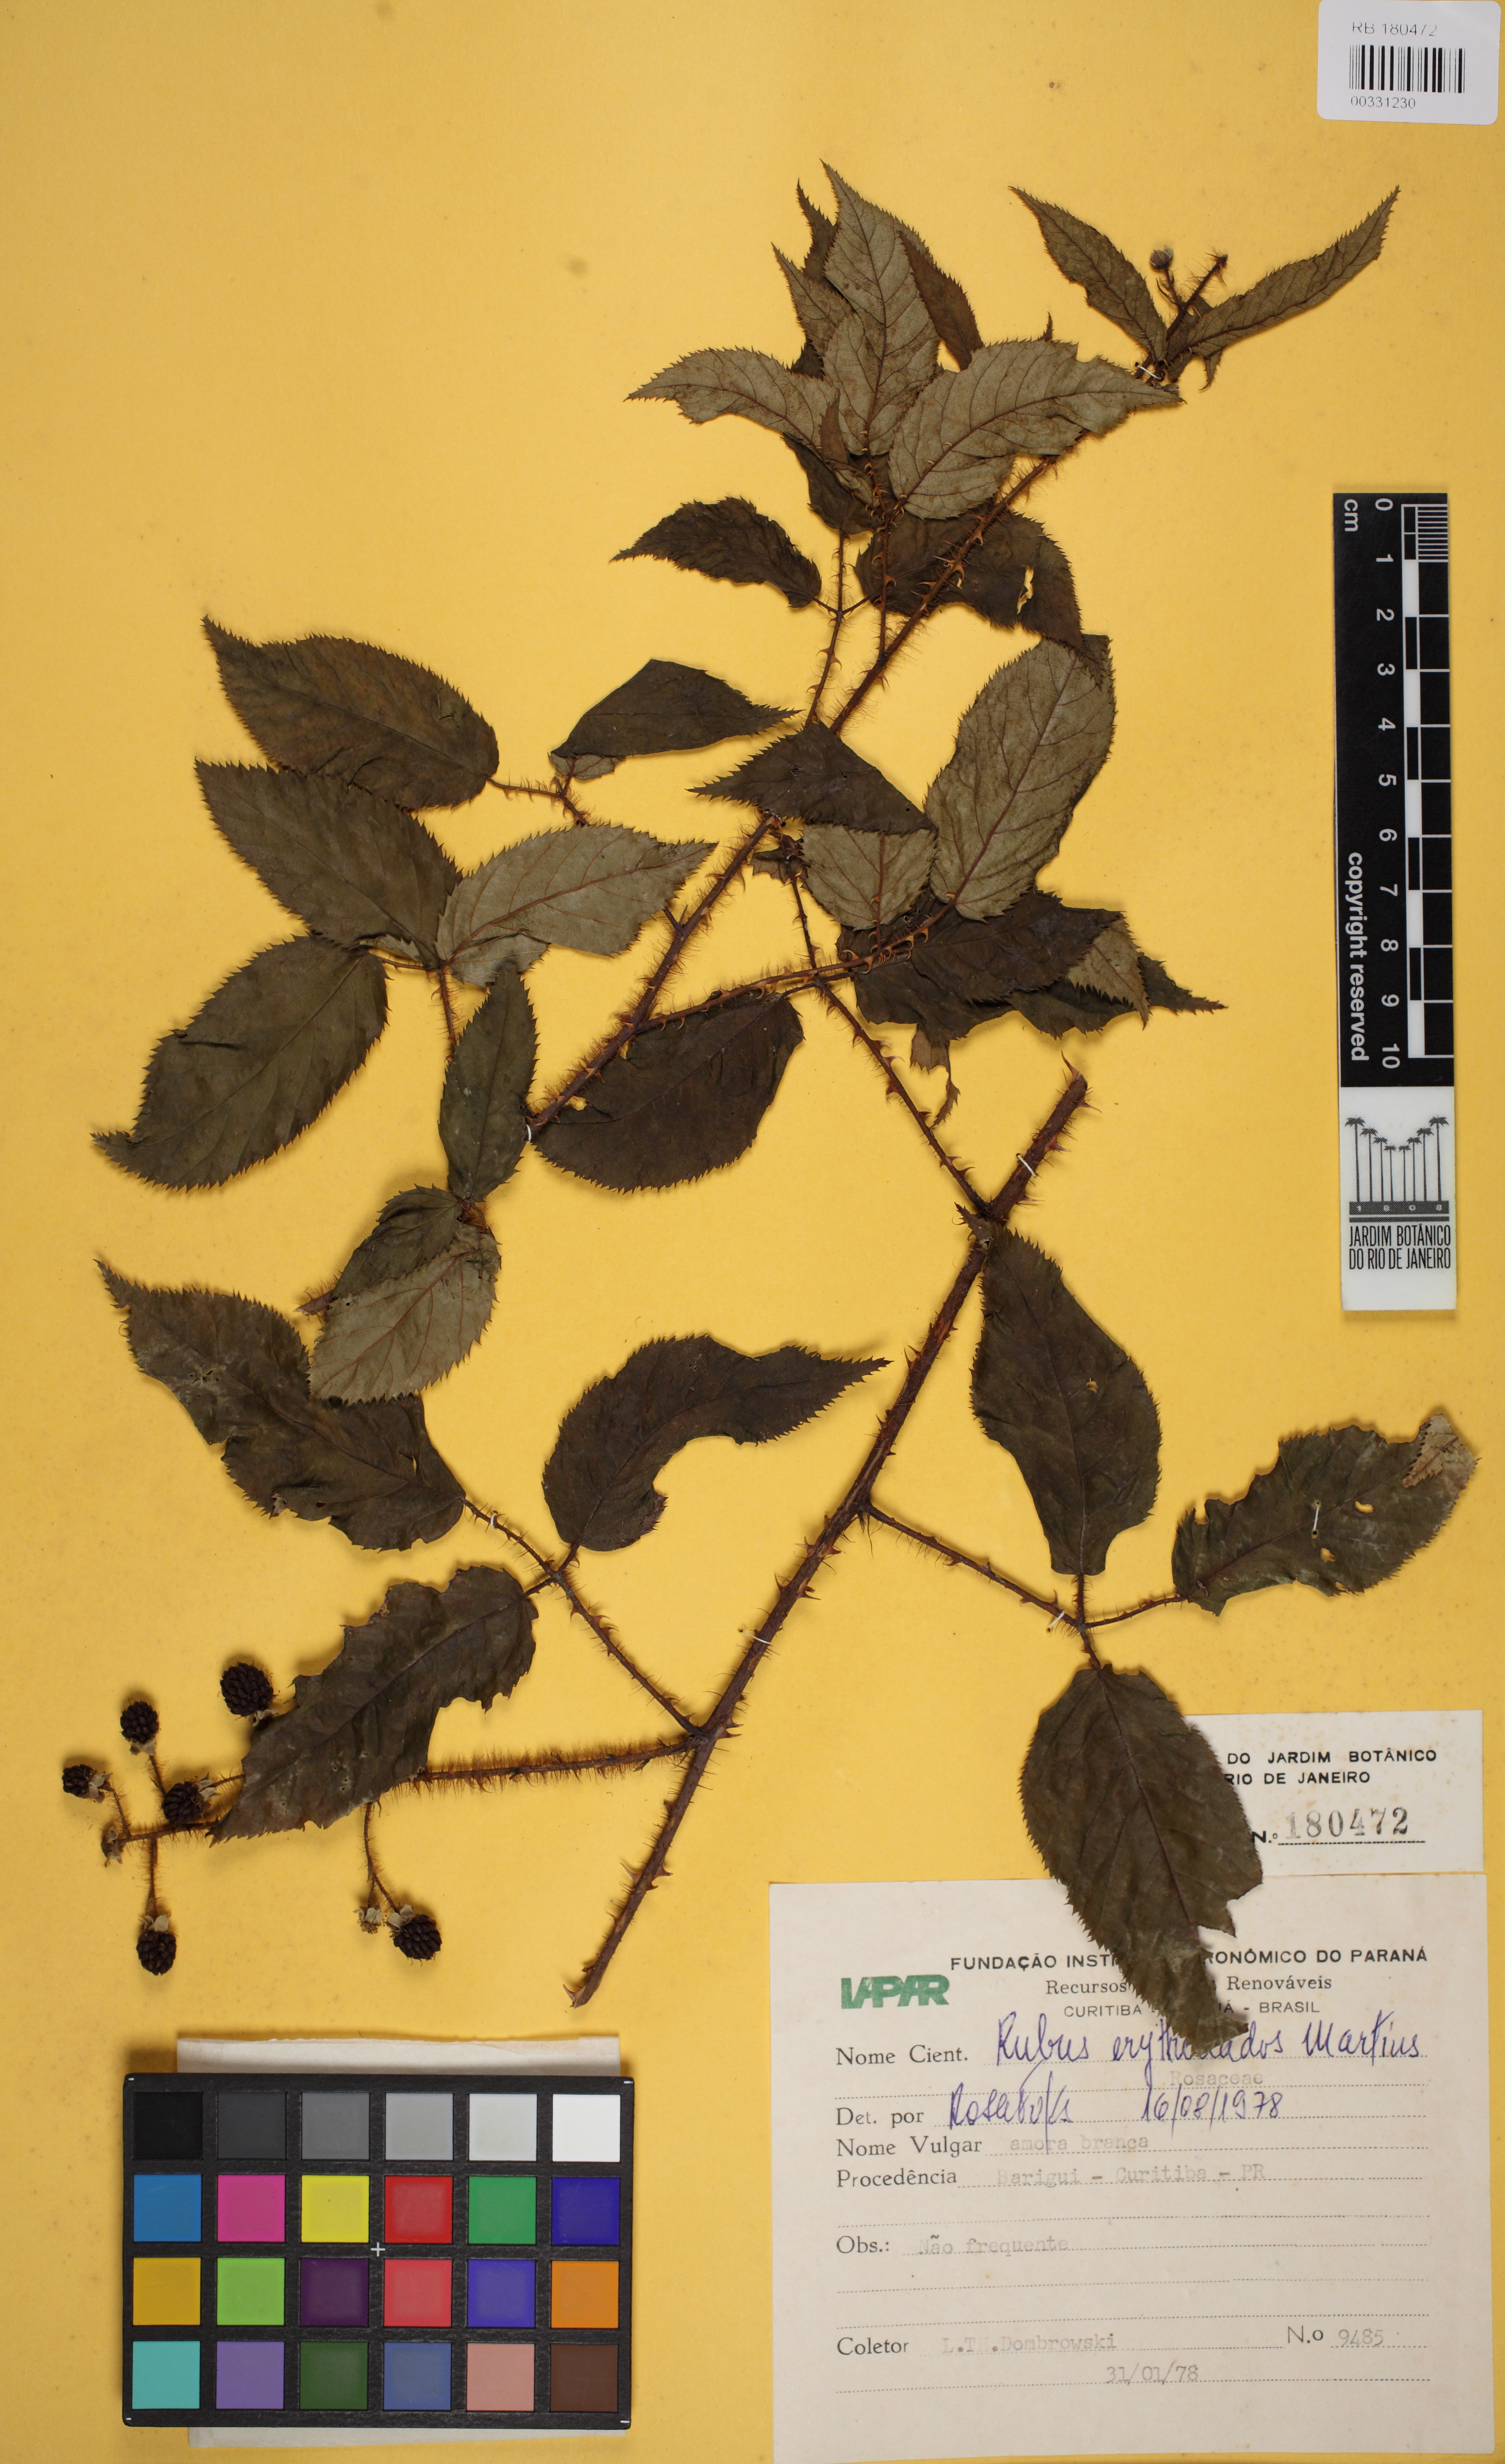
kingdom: Plantae
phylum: Tracheophyta
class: Magnoliopsida
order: Rosales
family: Rosaceae
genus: Rubus
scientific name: Rubus erythroclados
